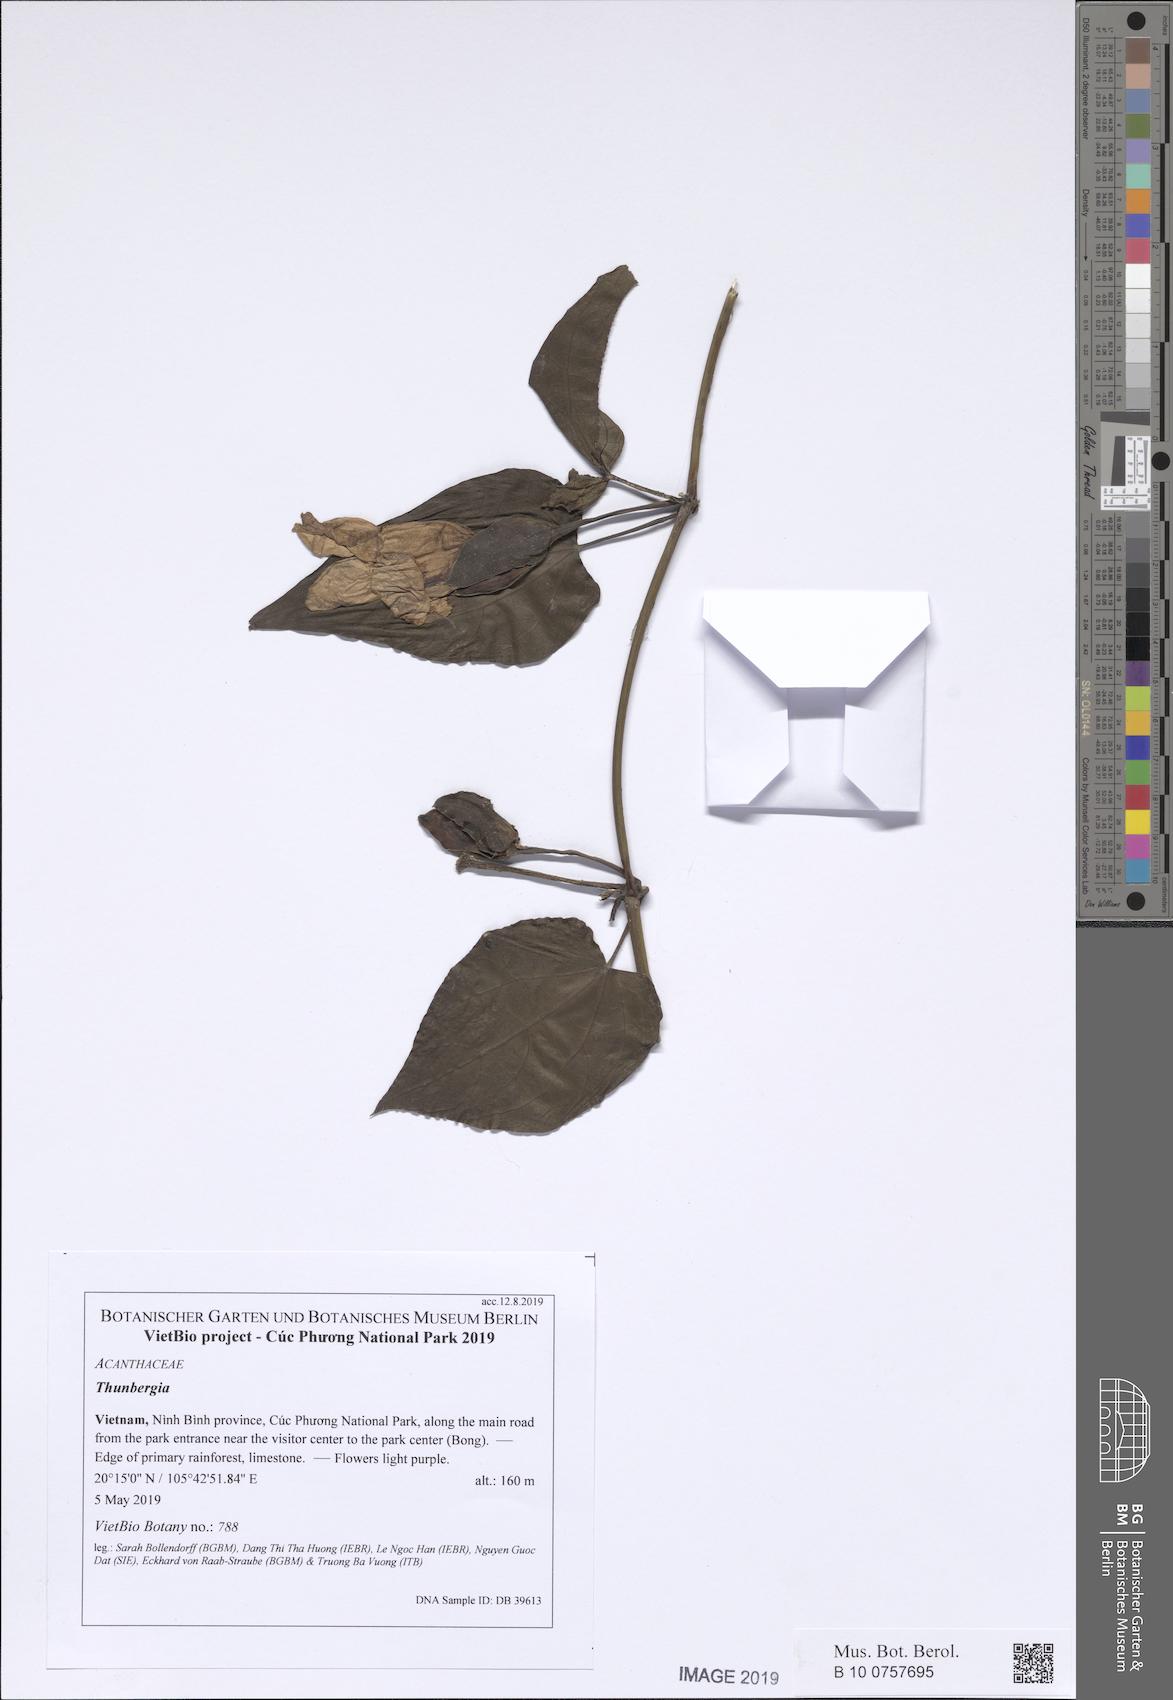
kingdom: Plantae
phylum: Tracheophyta
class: Magnoliopsida
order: Lamiales
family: Acanthaceae
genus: Thunbergia
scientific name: Thunbergia laurifolia
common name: Laurel-leaved thunbergia
